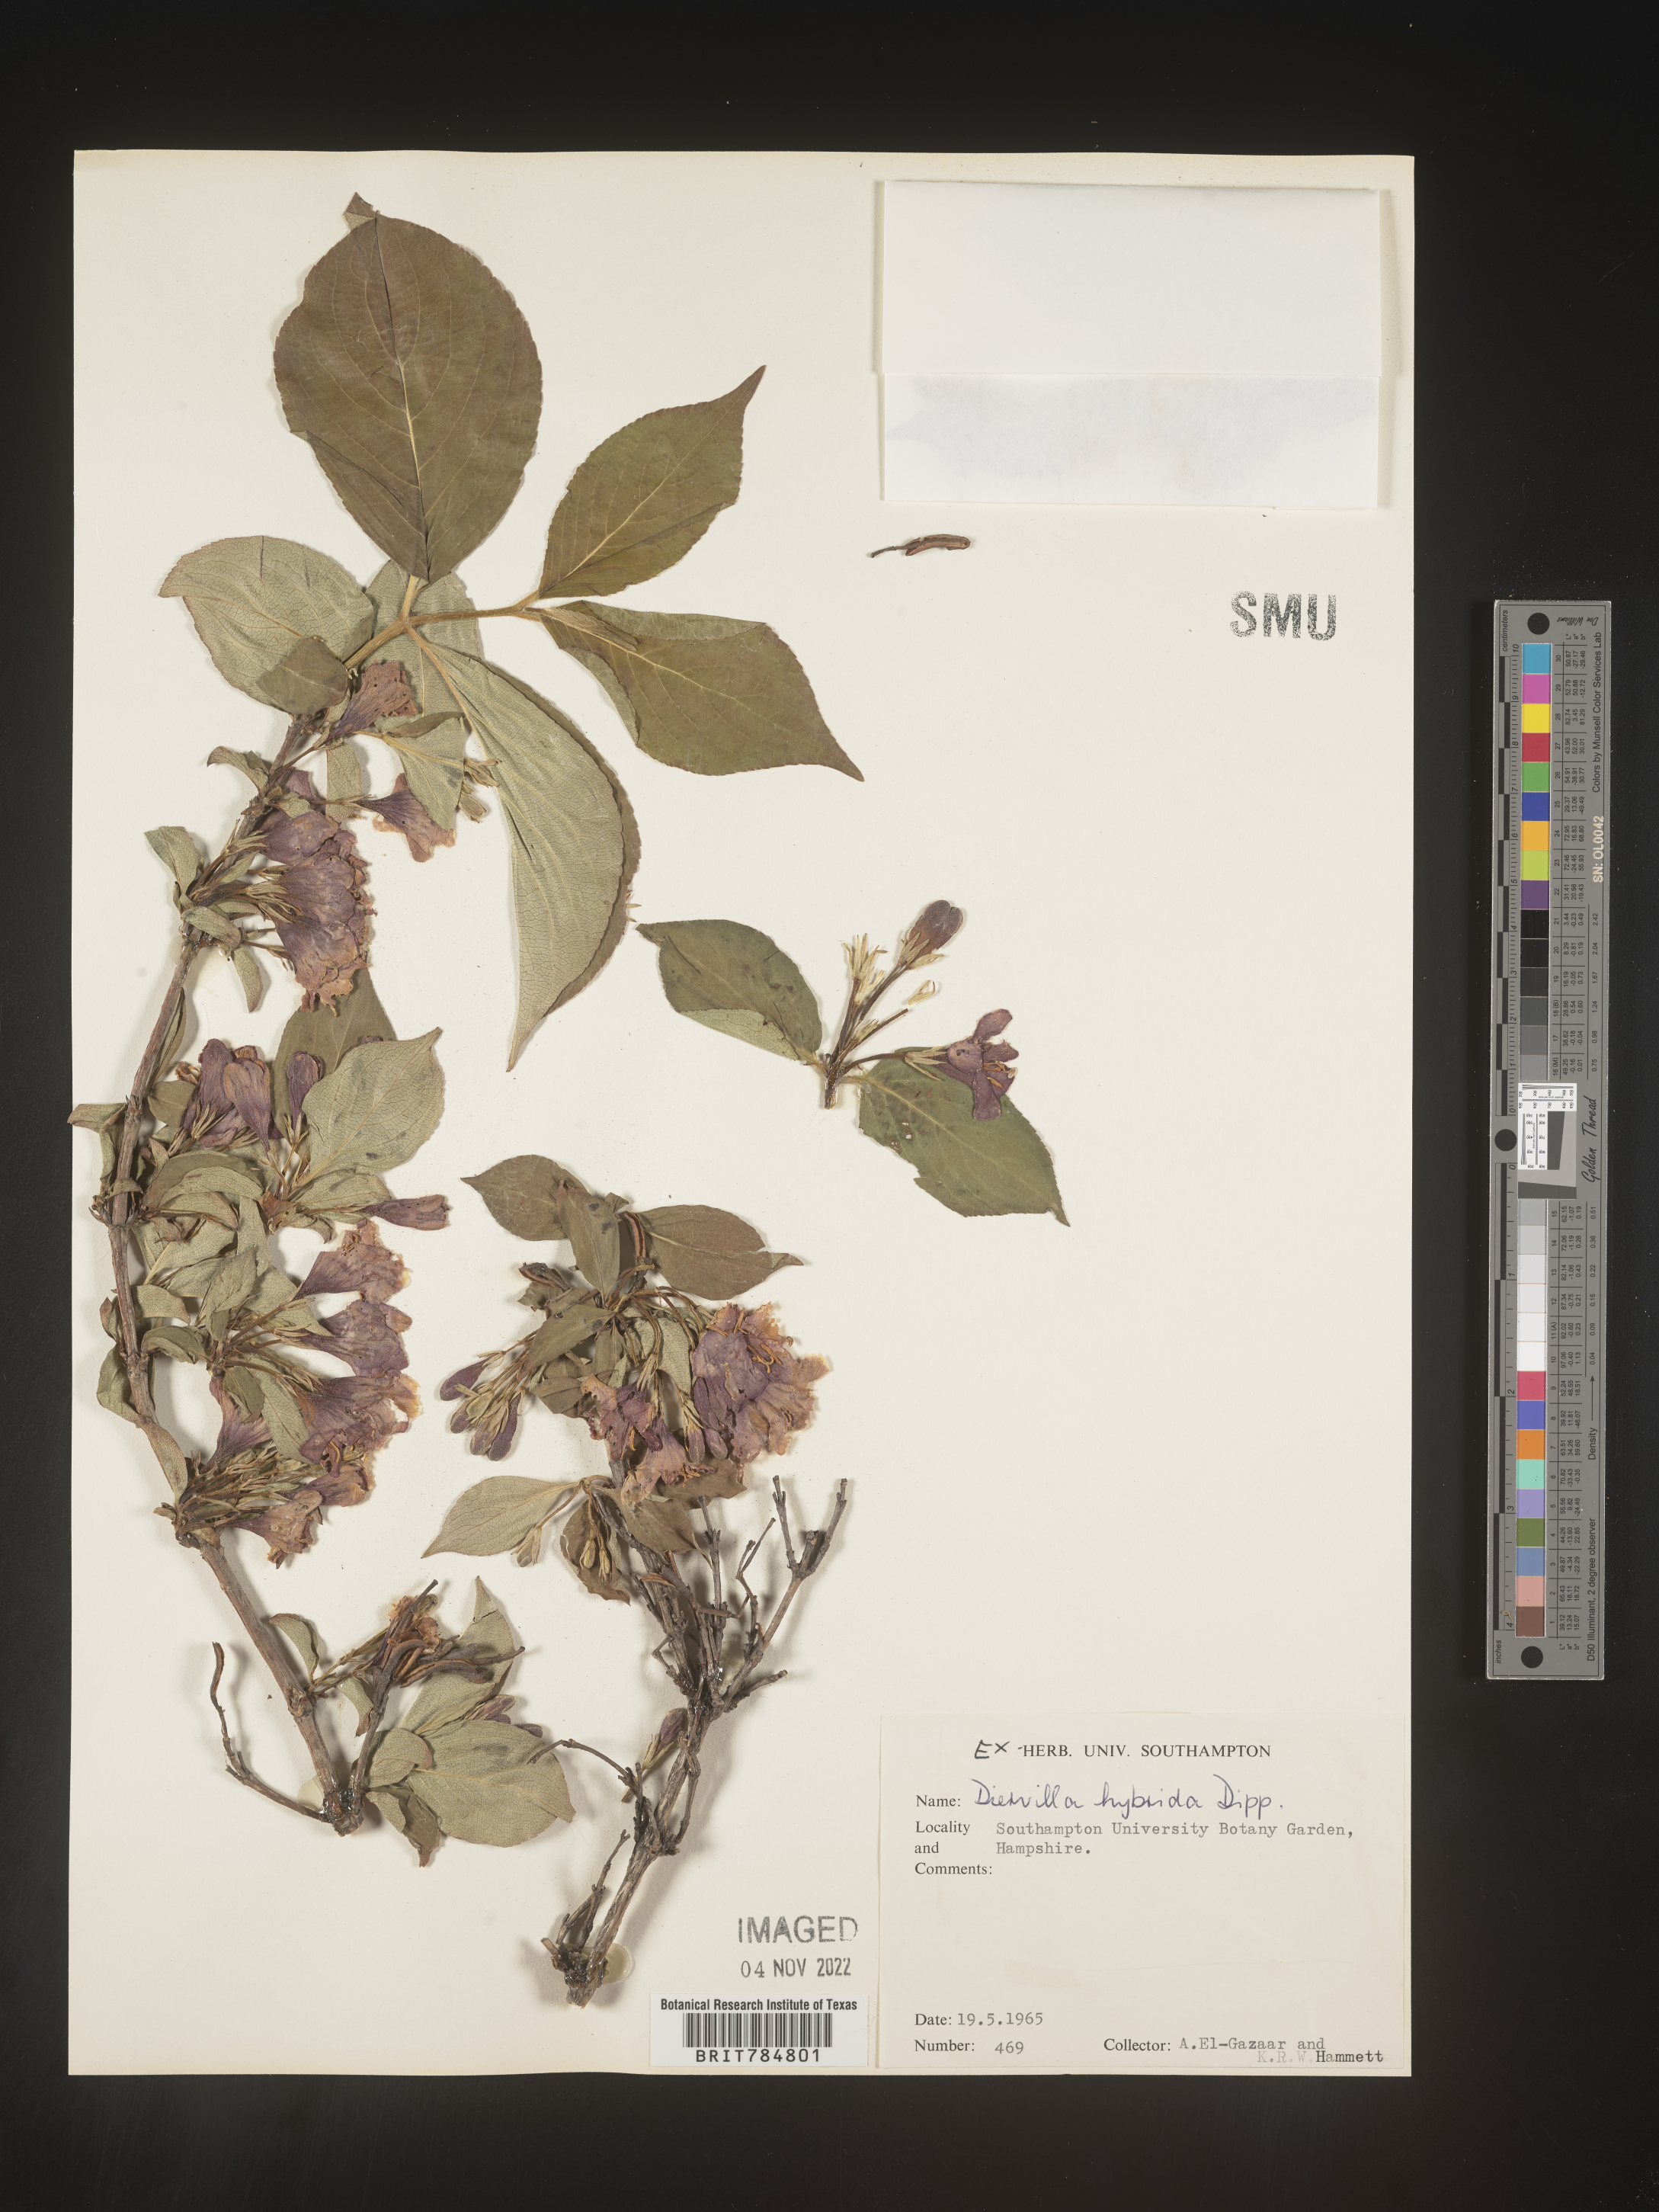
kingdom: Plantae
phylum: Tracheophyta
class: Magnoliopsida
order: Dipsacales
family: Caprifoliaceae
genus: Diervilla
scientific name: Diervilla
